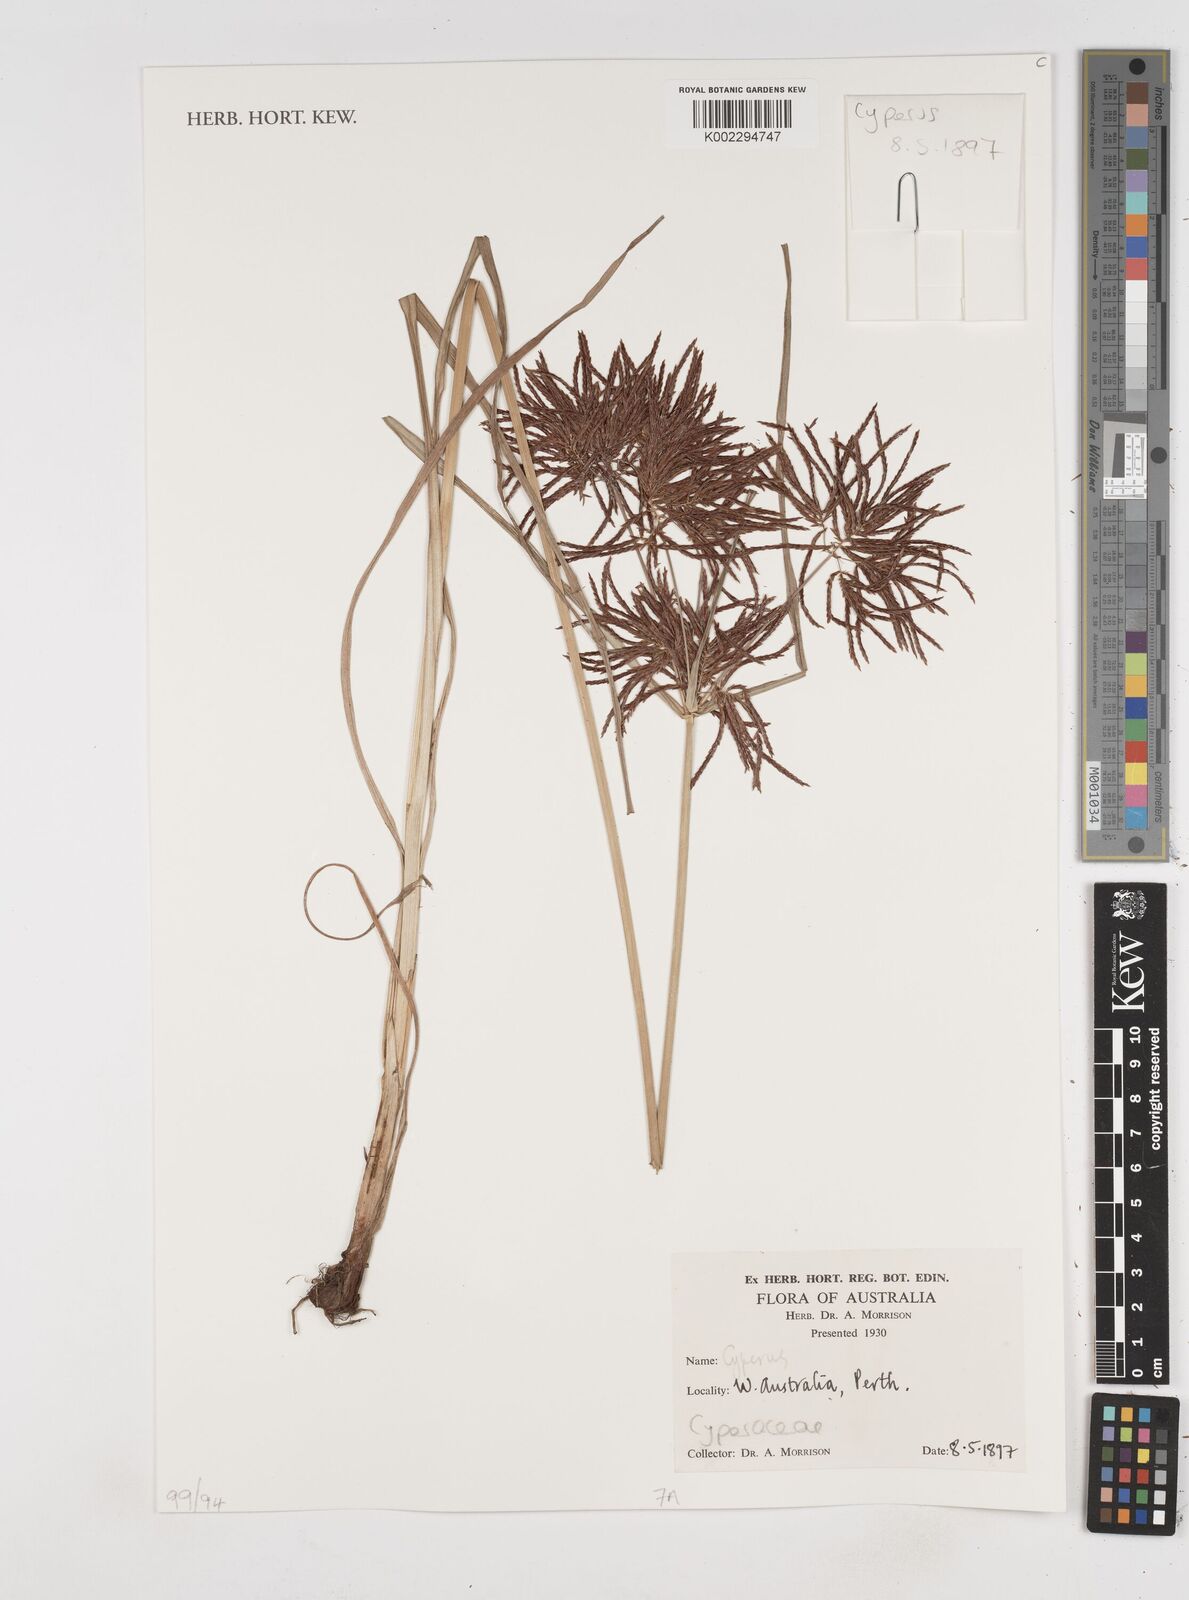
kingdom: Plantae
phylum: Tracheophyta
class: Liliopsida
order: Poales
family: Cyperaceae
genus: Cyperus
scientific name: Cyperus
